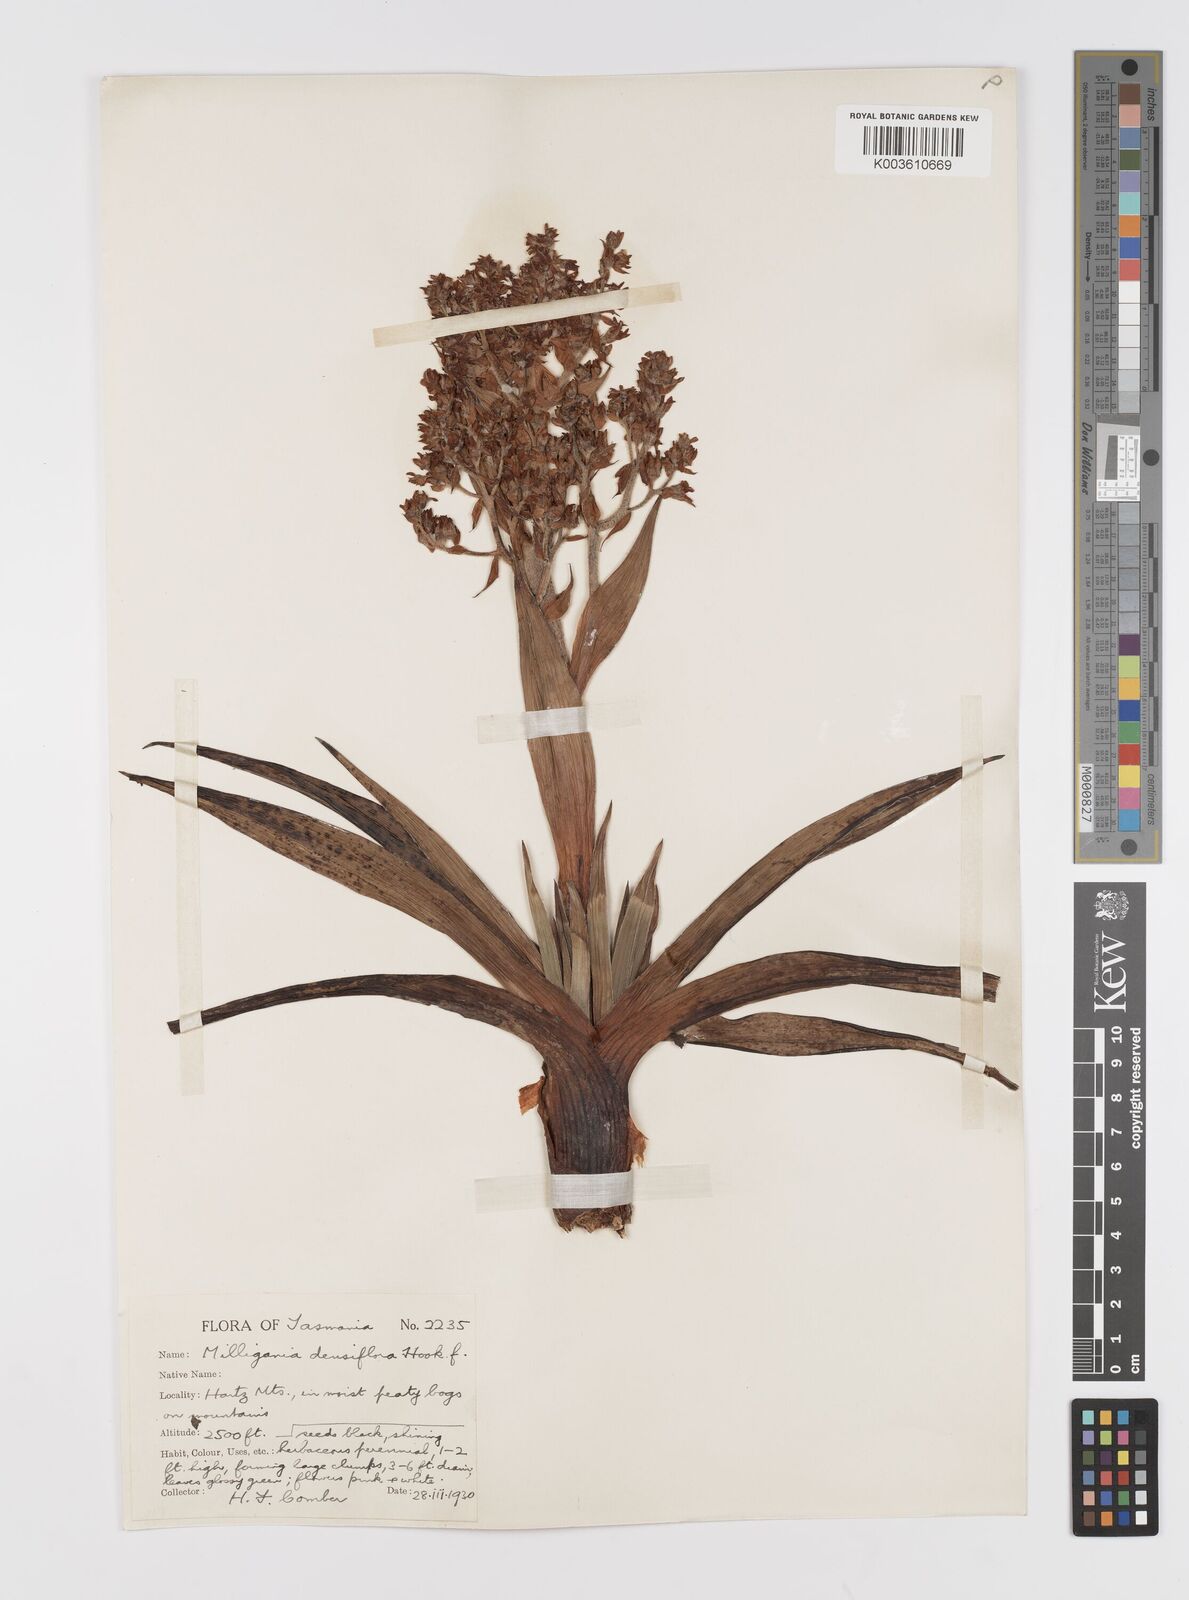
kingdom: Plantae
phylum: Tracheophyta
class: Liliopsida
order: Asparagales
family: Asteliaceae
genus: Milligania
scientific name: Milligania densiflora
